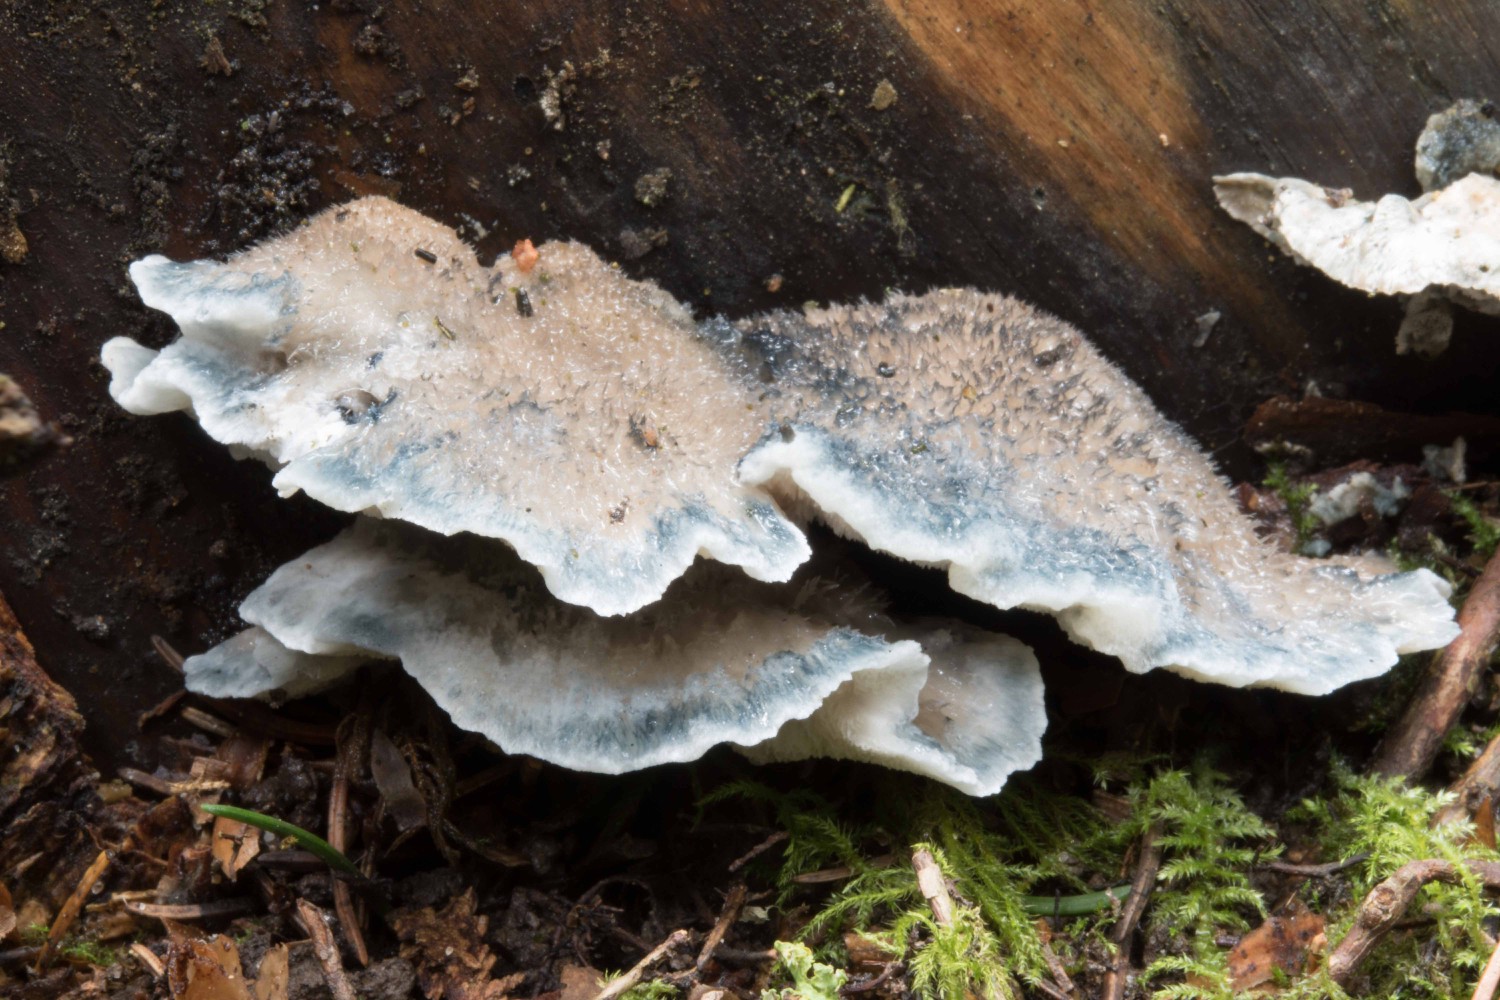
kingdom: Fungi
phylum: Basidiomycota
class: Agaricomycetes
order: Polyporales
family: Polyporaceae
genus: Cyanosporus
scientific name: Cyanosporus caesius
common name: blålig kødporesvamp
